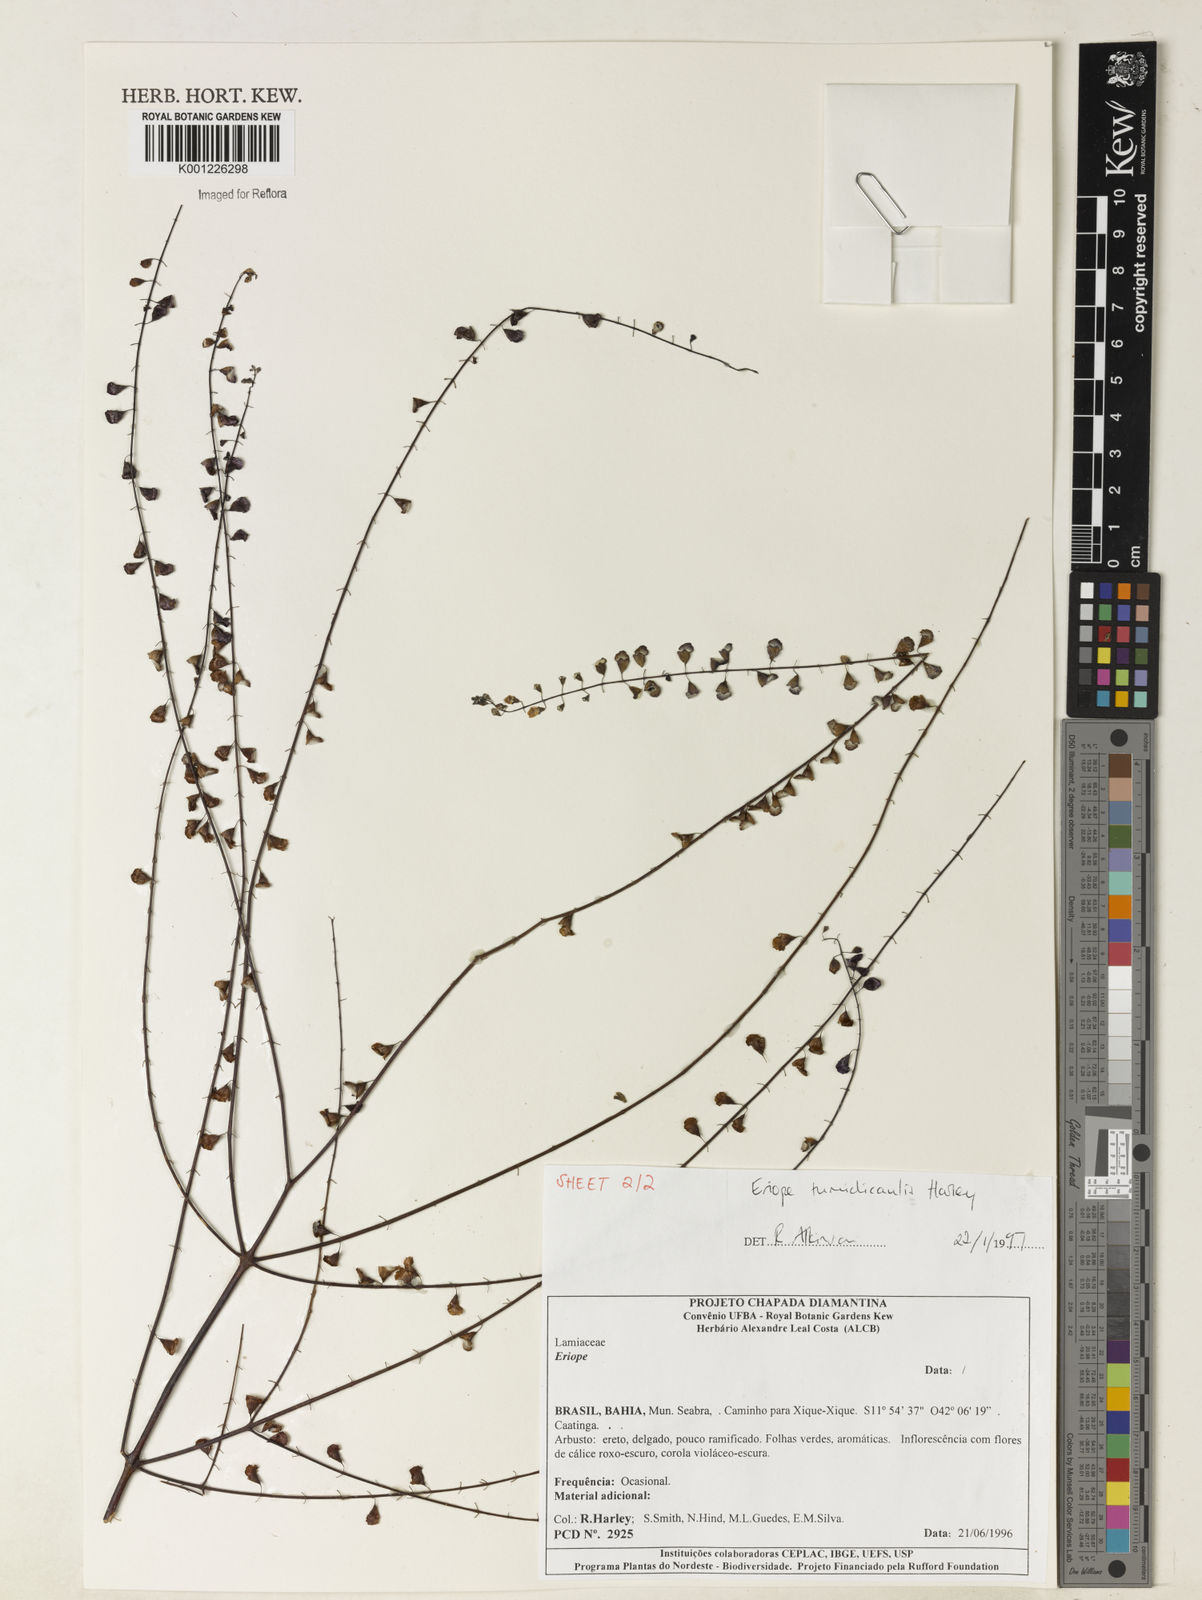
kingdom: Plantae
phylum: Tracheophyta
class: Magnoliopsida
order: Lamiales
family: Lamiaceae
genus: Eriope
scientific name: Eriope tumidicaulis
